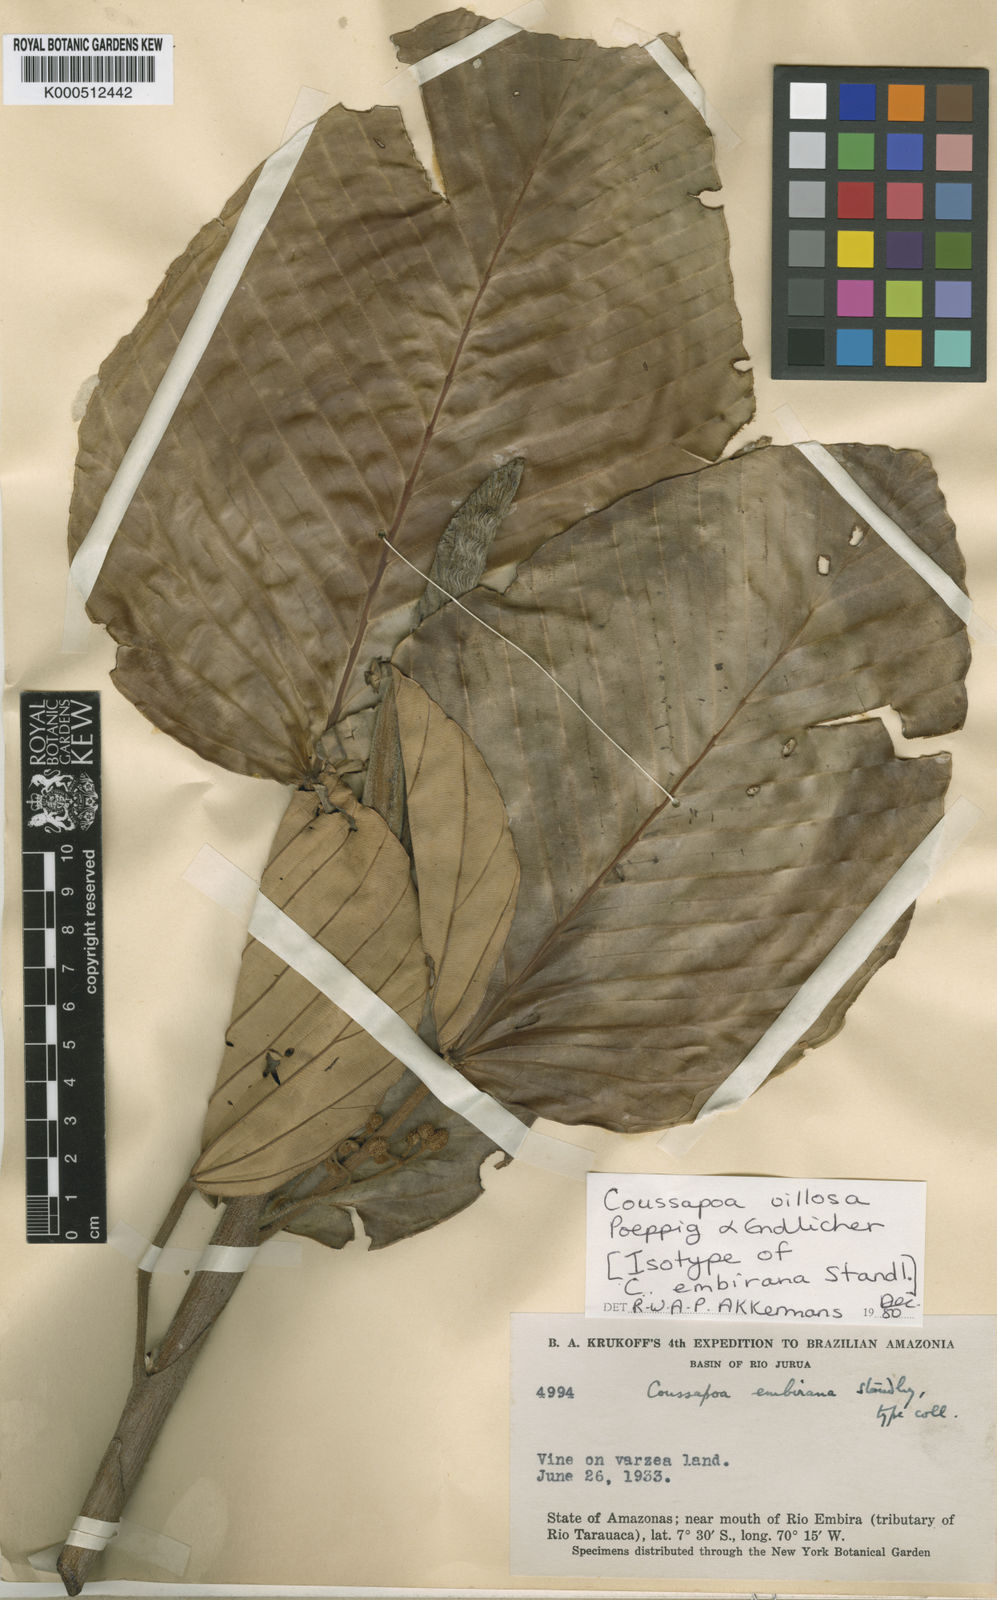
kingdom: Plantae
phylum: Tracheophyta
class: Magnoliopsida
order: Rosales
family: Urticaceae
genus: Coussapoa
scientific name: Coussapoa villosa
